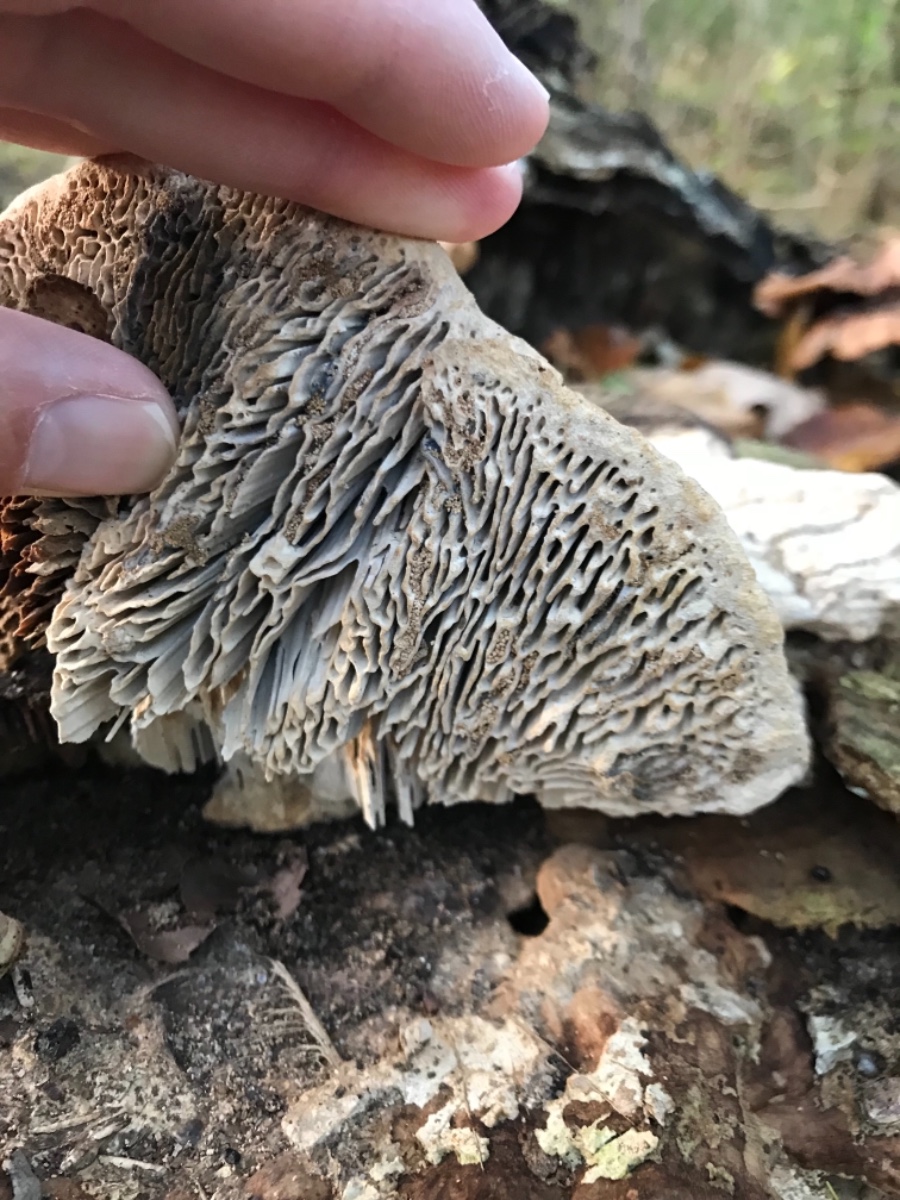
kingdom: Fungi
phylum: Basidiomycota
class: Agaricomycetes
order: Polyporales
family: Fomitopsidaceae
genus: Daedalea
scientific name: Daedalea quercina
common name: ege-labyrintsvamp
